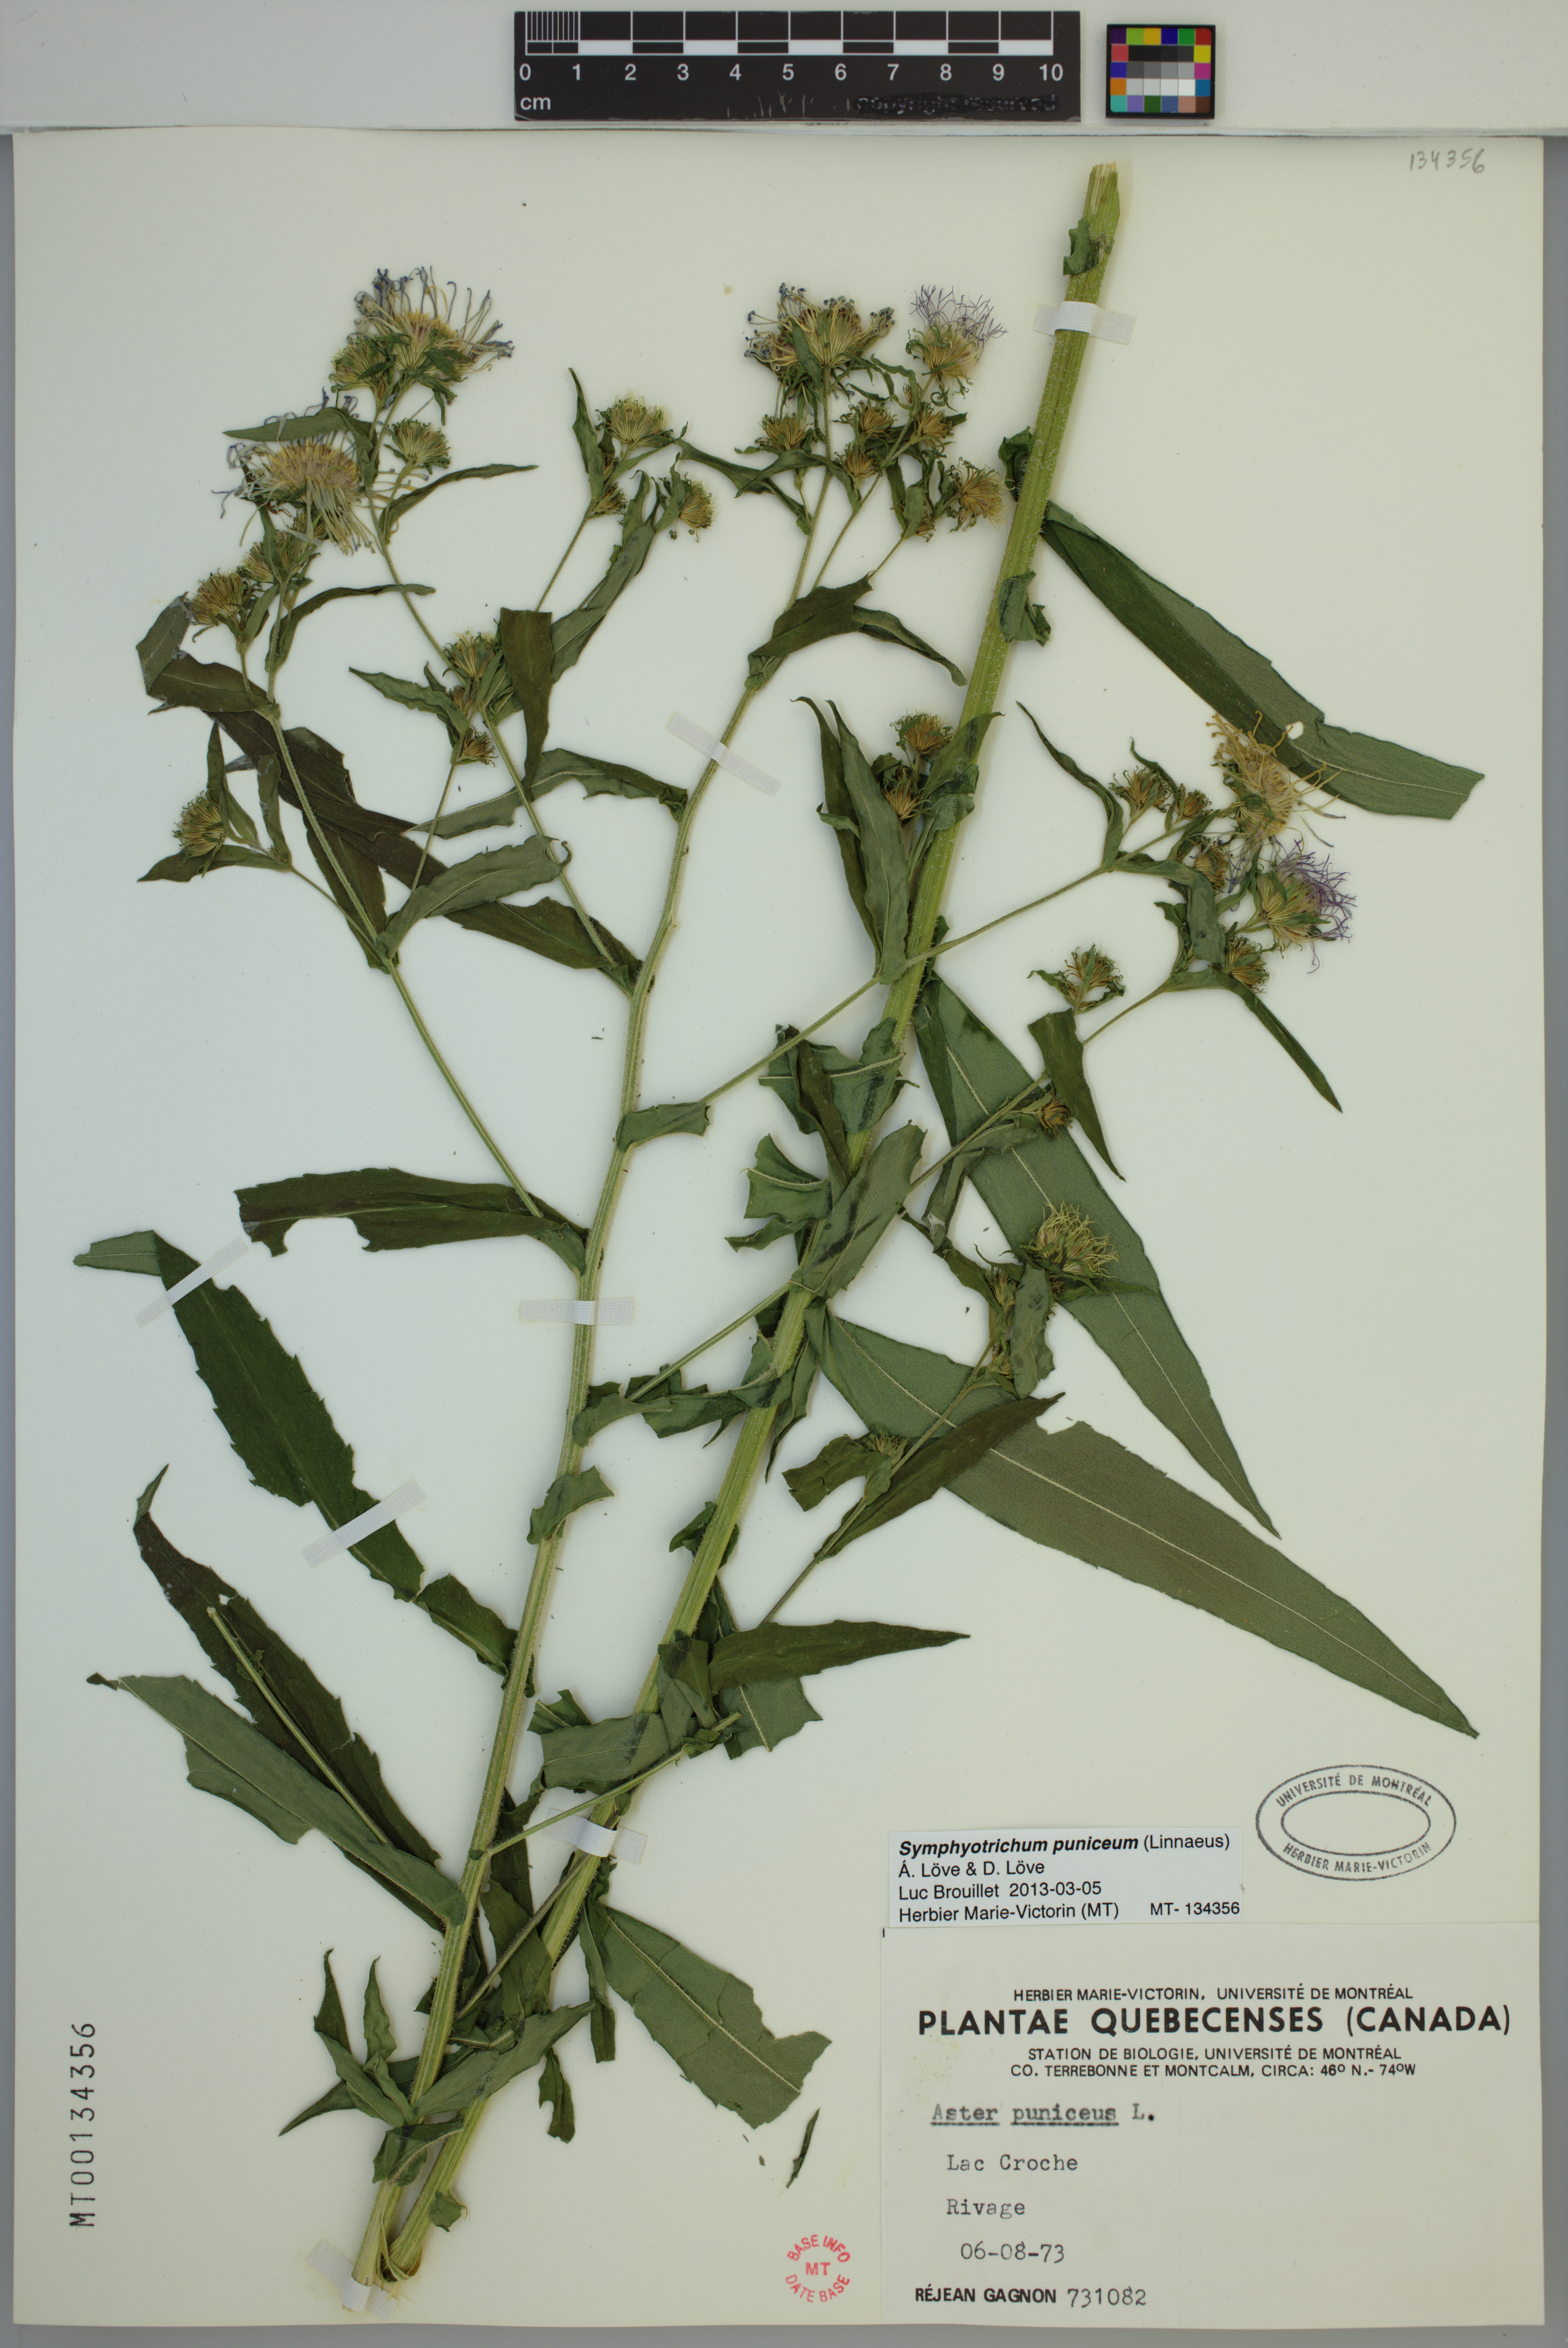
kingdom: Plantae
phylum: Tracheophyta
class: Magnoliopsida
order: Asterales
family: Asteraceae
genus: Symphyotrichum
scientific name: Symphyotrichum puniceum
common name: Bog aster
